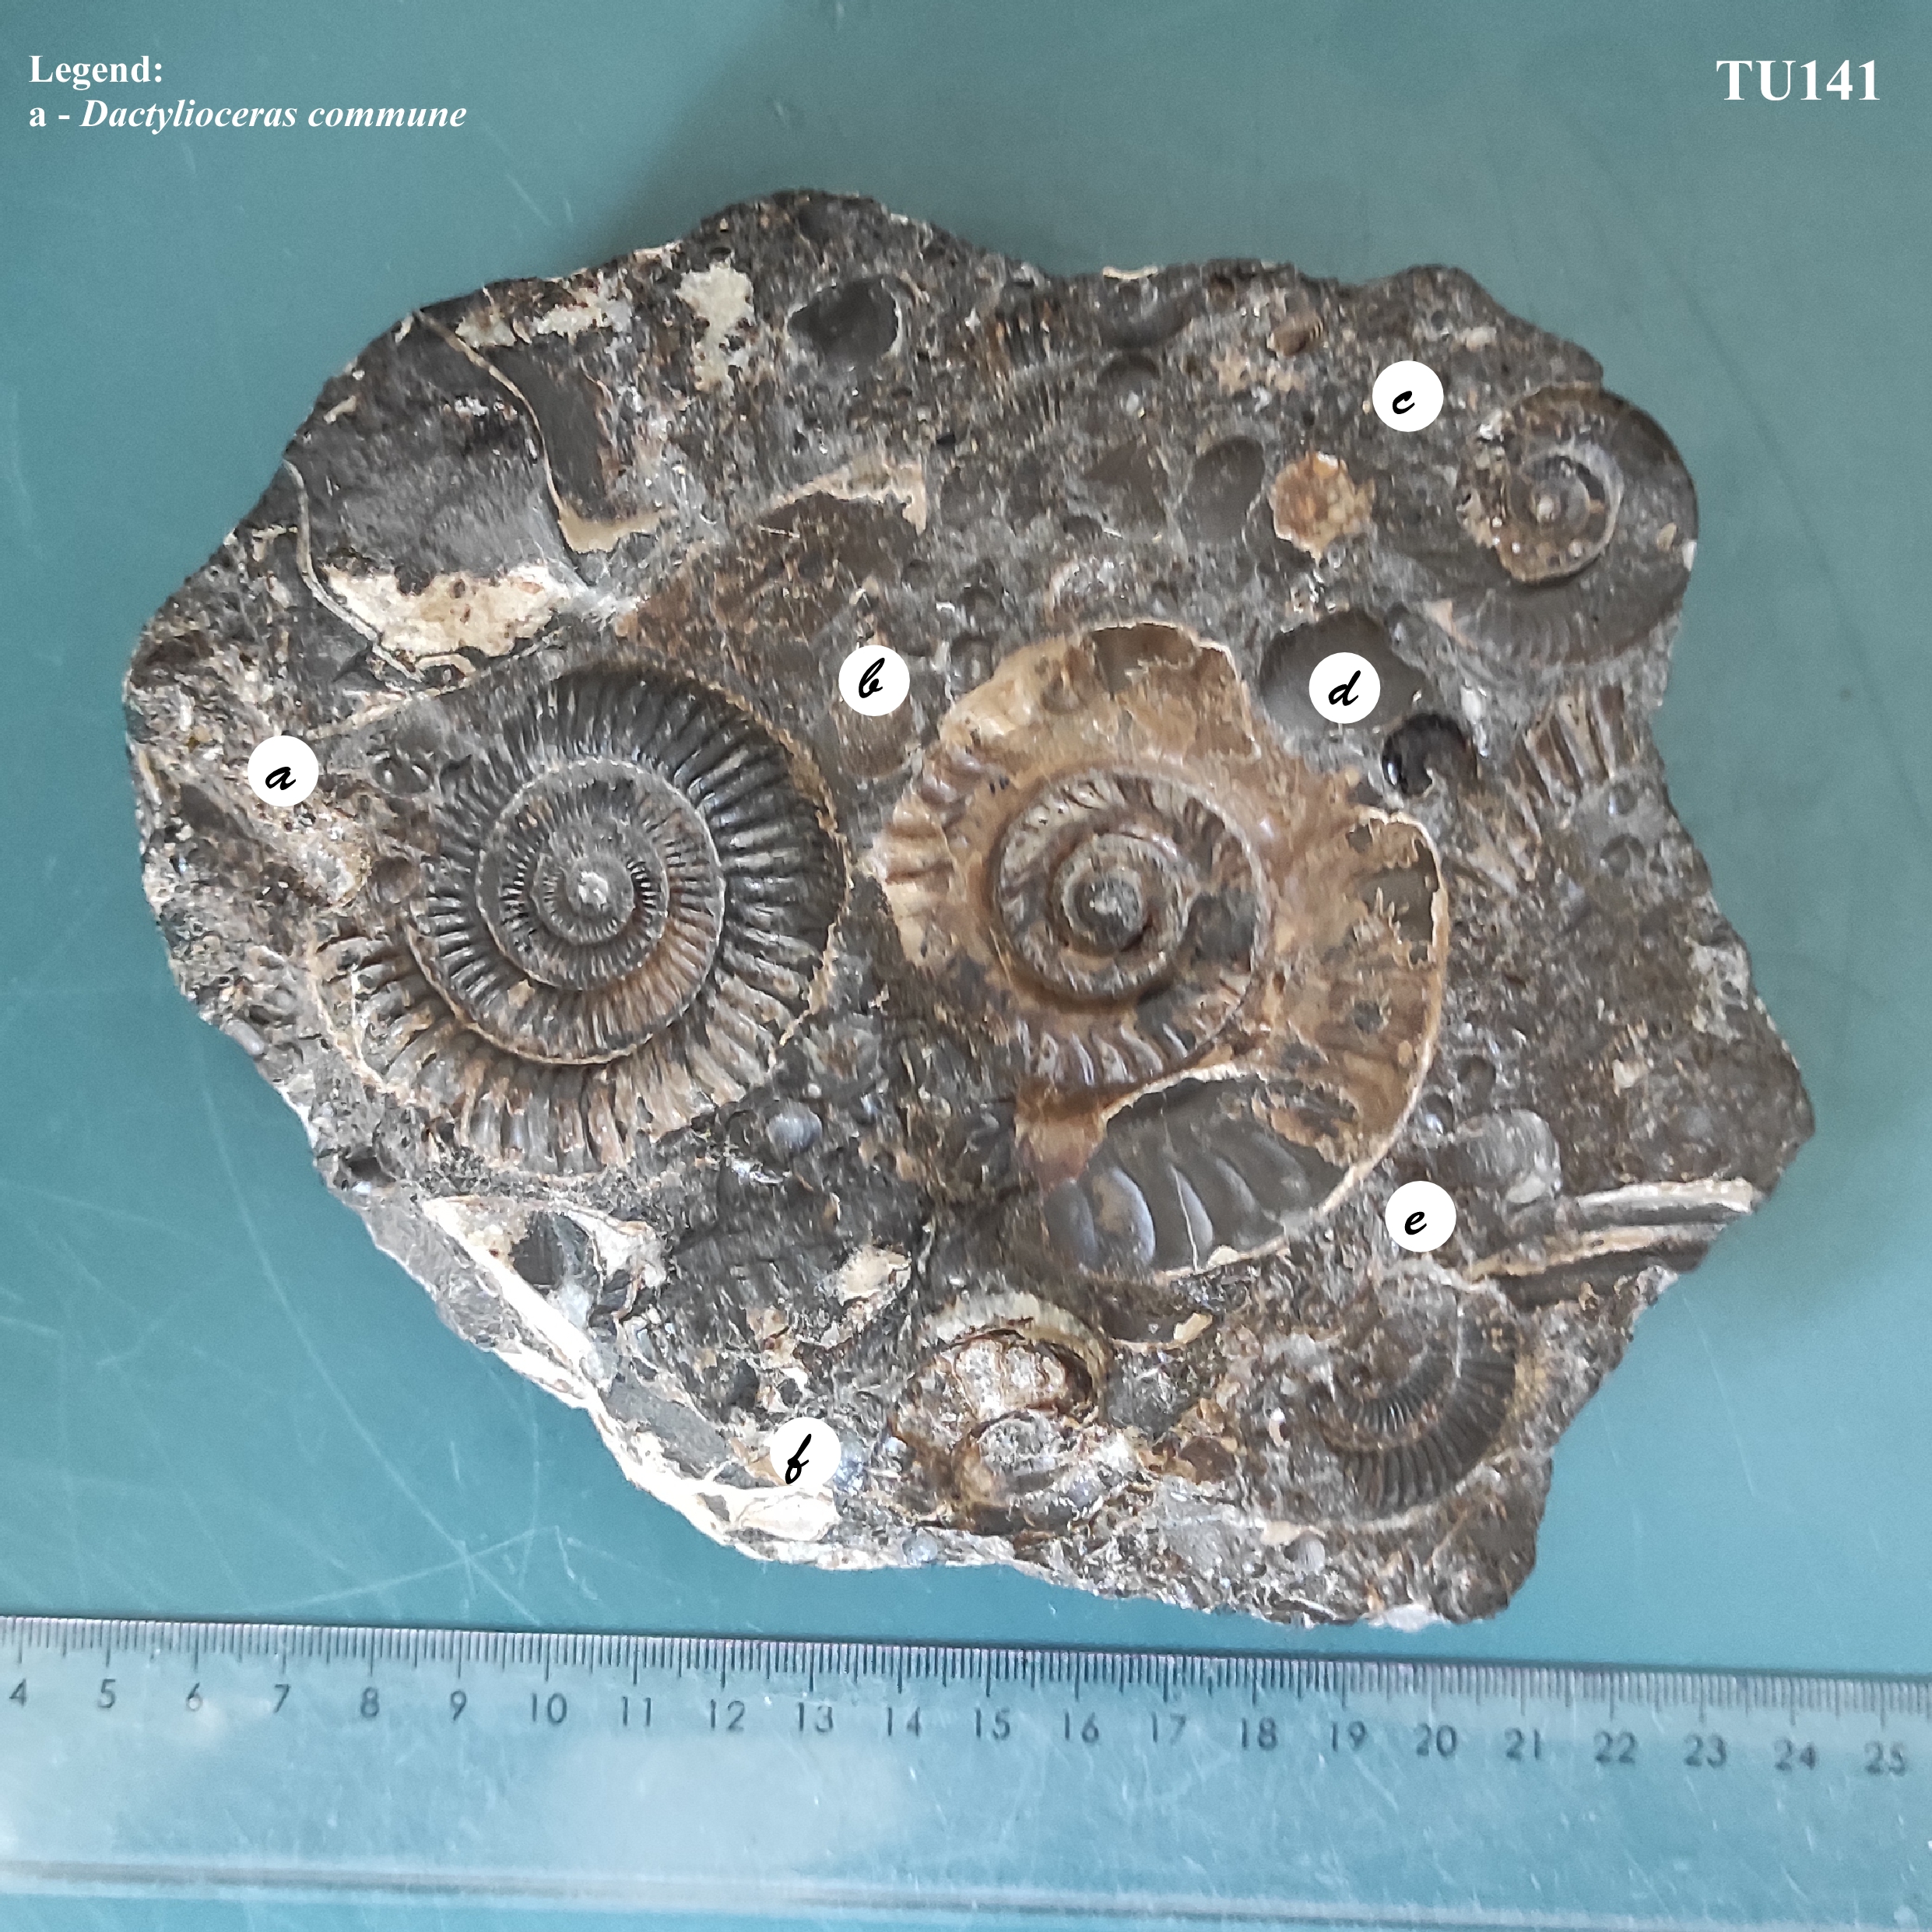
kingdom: Animalia
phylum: Mollusca
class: Cephalopoda
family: Dactylioceratidae
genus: Dactylioceras
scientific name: Dactylioceras
